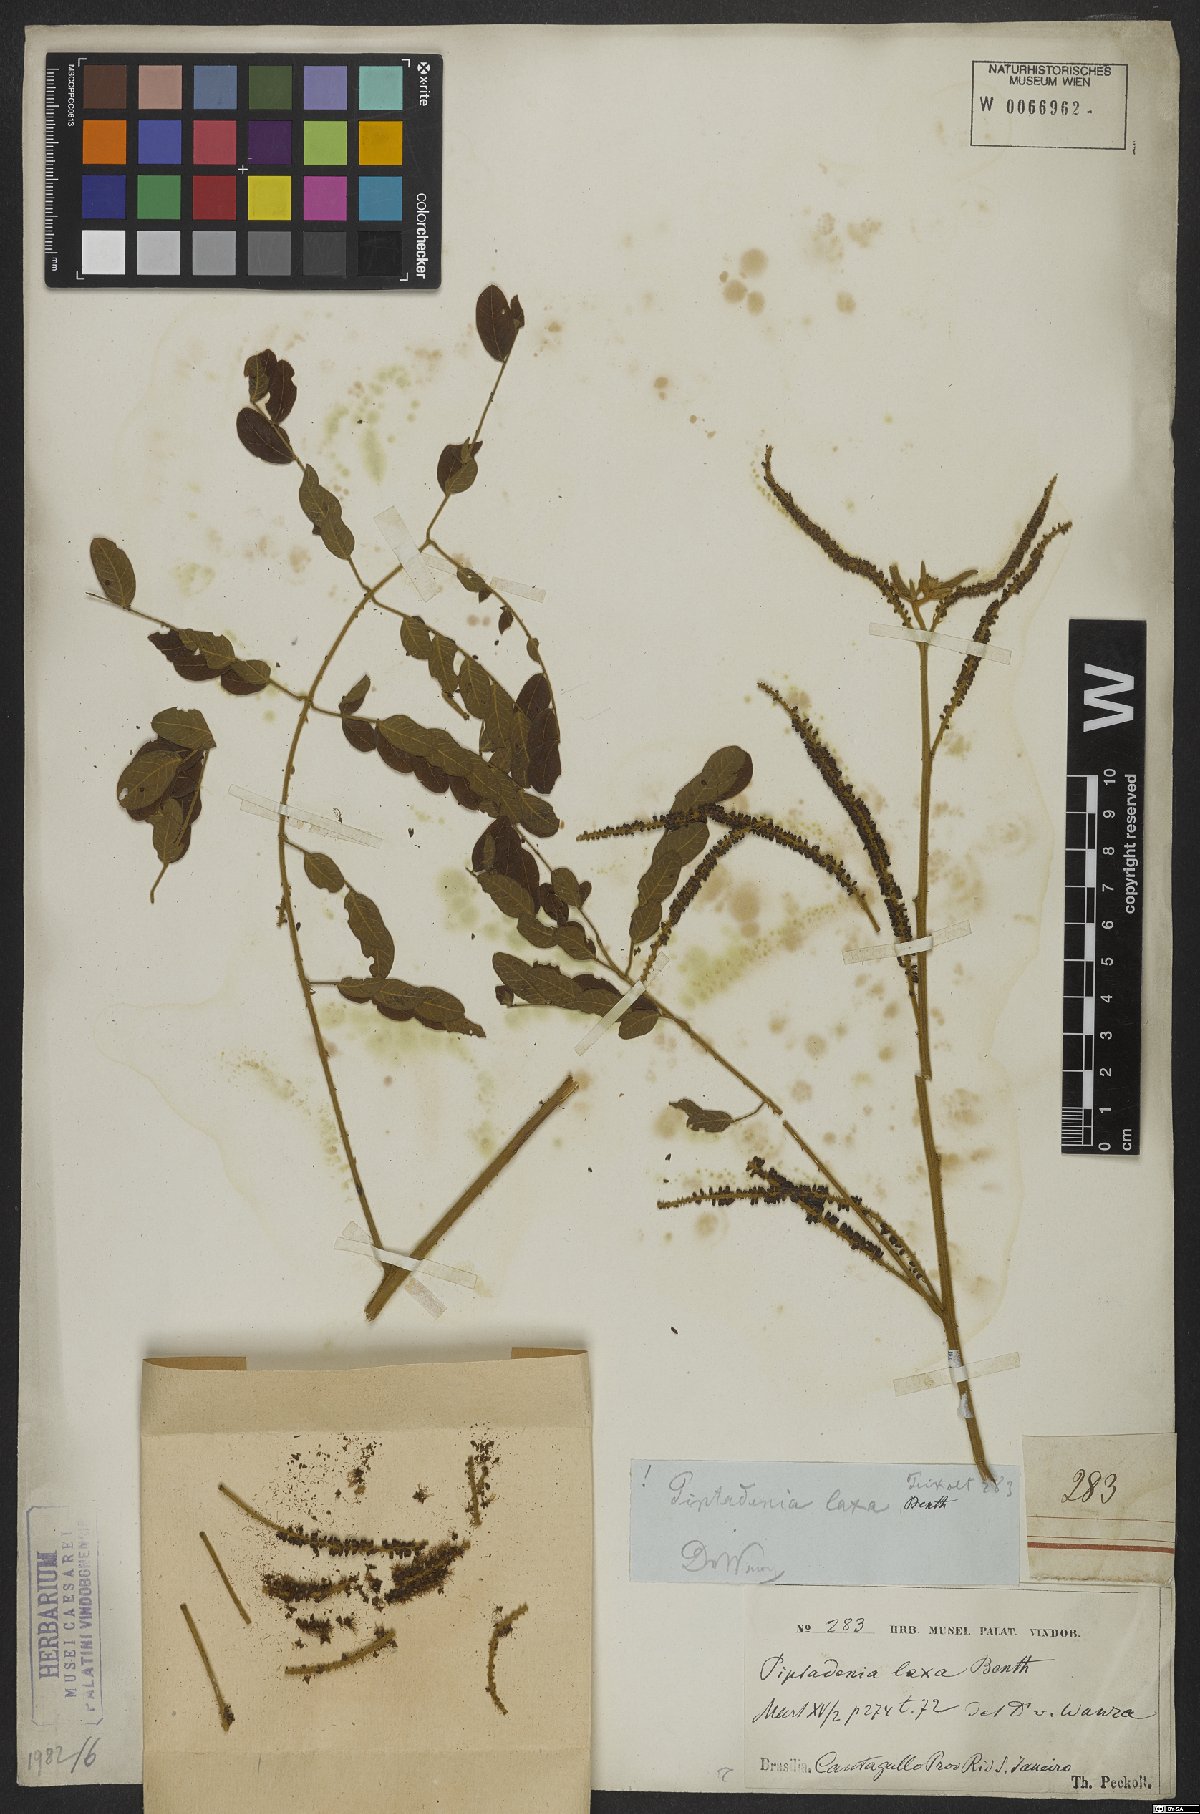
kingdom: Plantae
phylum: Tracheophyta
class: Magnoliopsida
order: Fabales
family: Fabaceae
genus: Piptadenia
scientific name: Piptadenia adiantoides
